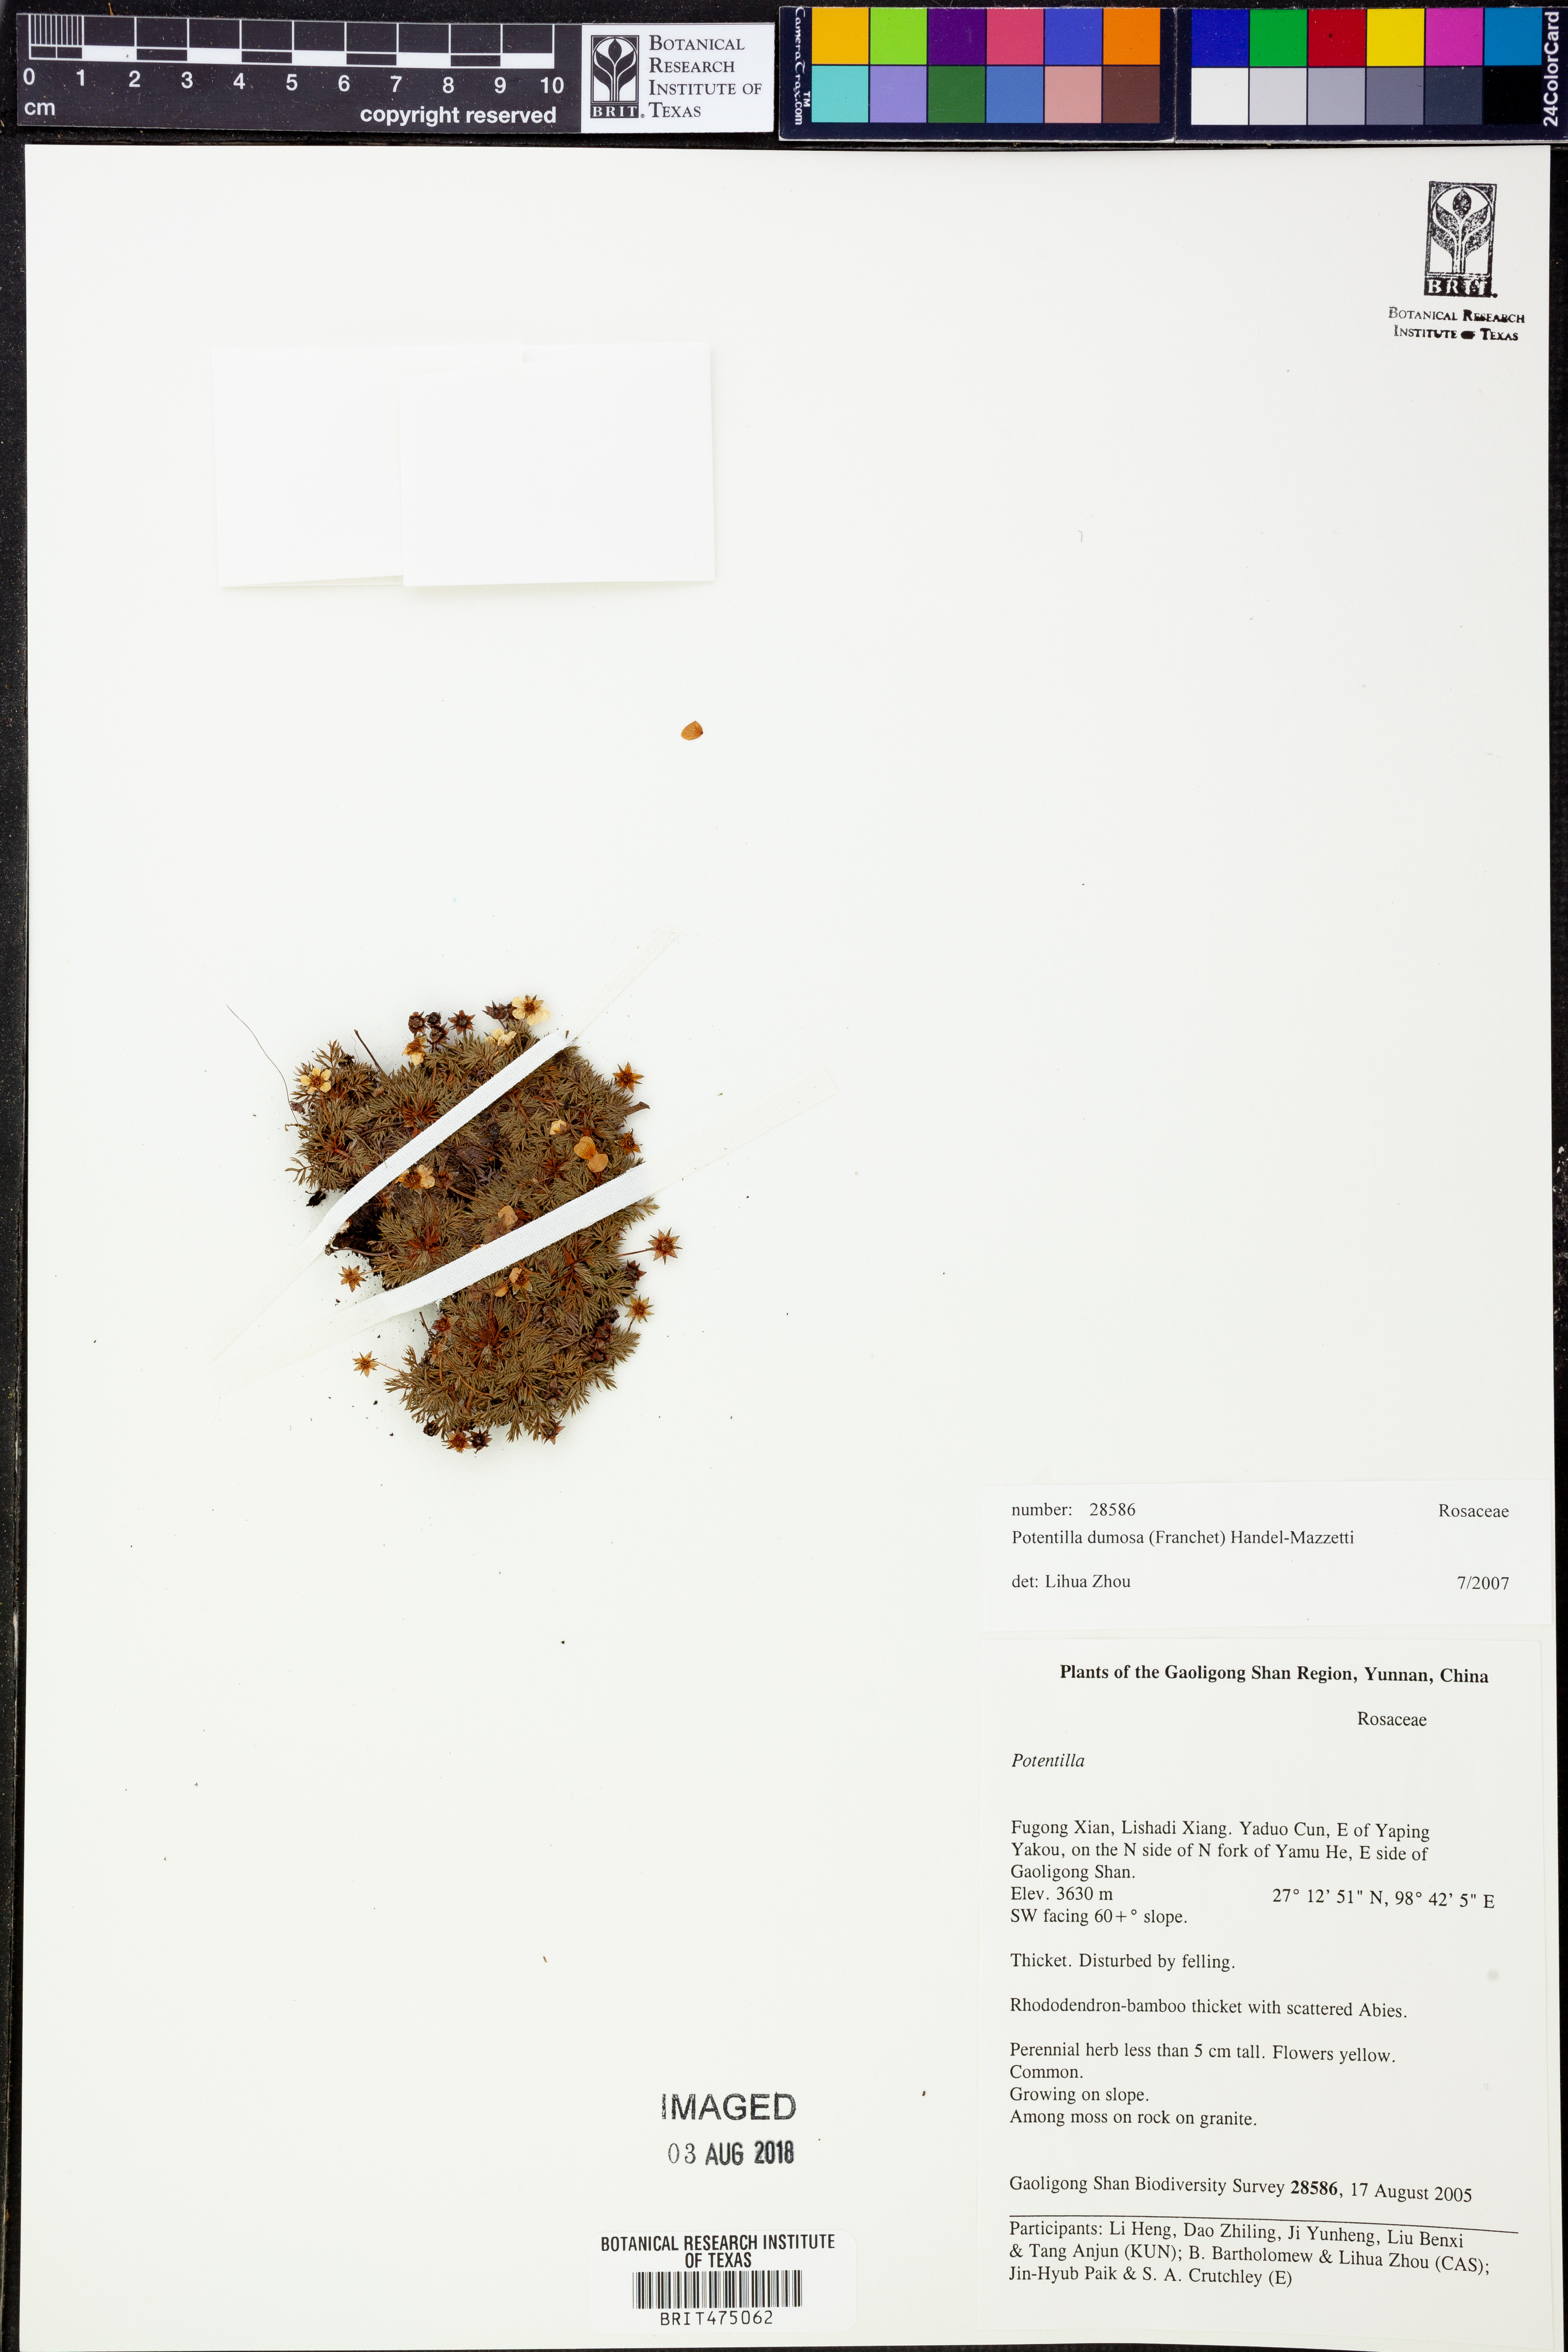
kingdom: Plantae
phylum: Tracheophyta
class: Magnoliopsida
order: Rosales
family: Rosaceae
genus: Potentilla
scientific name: Potentilla coriandrifolia
